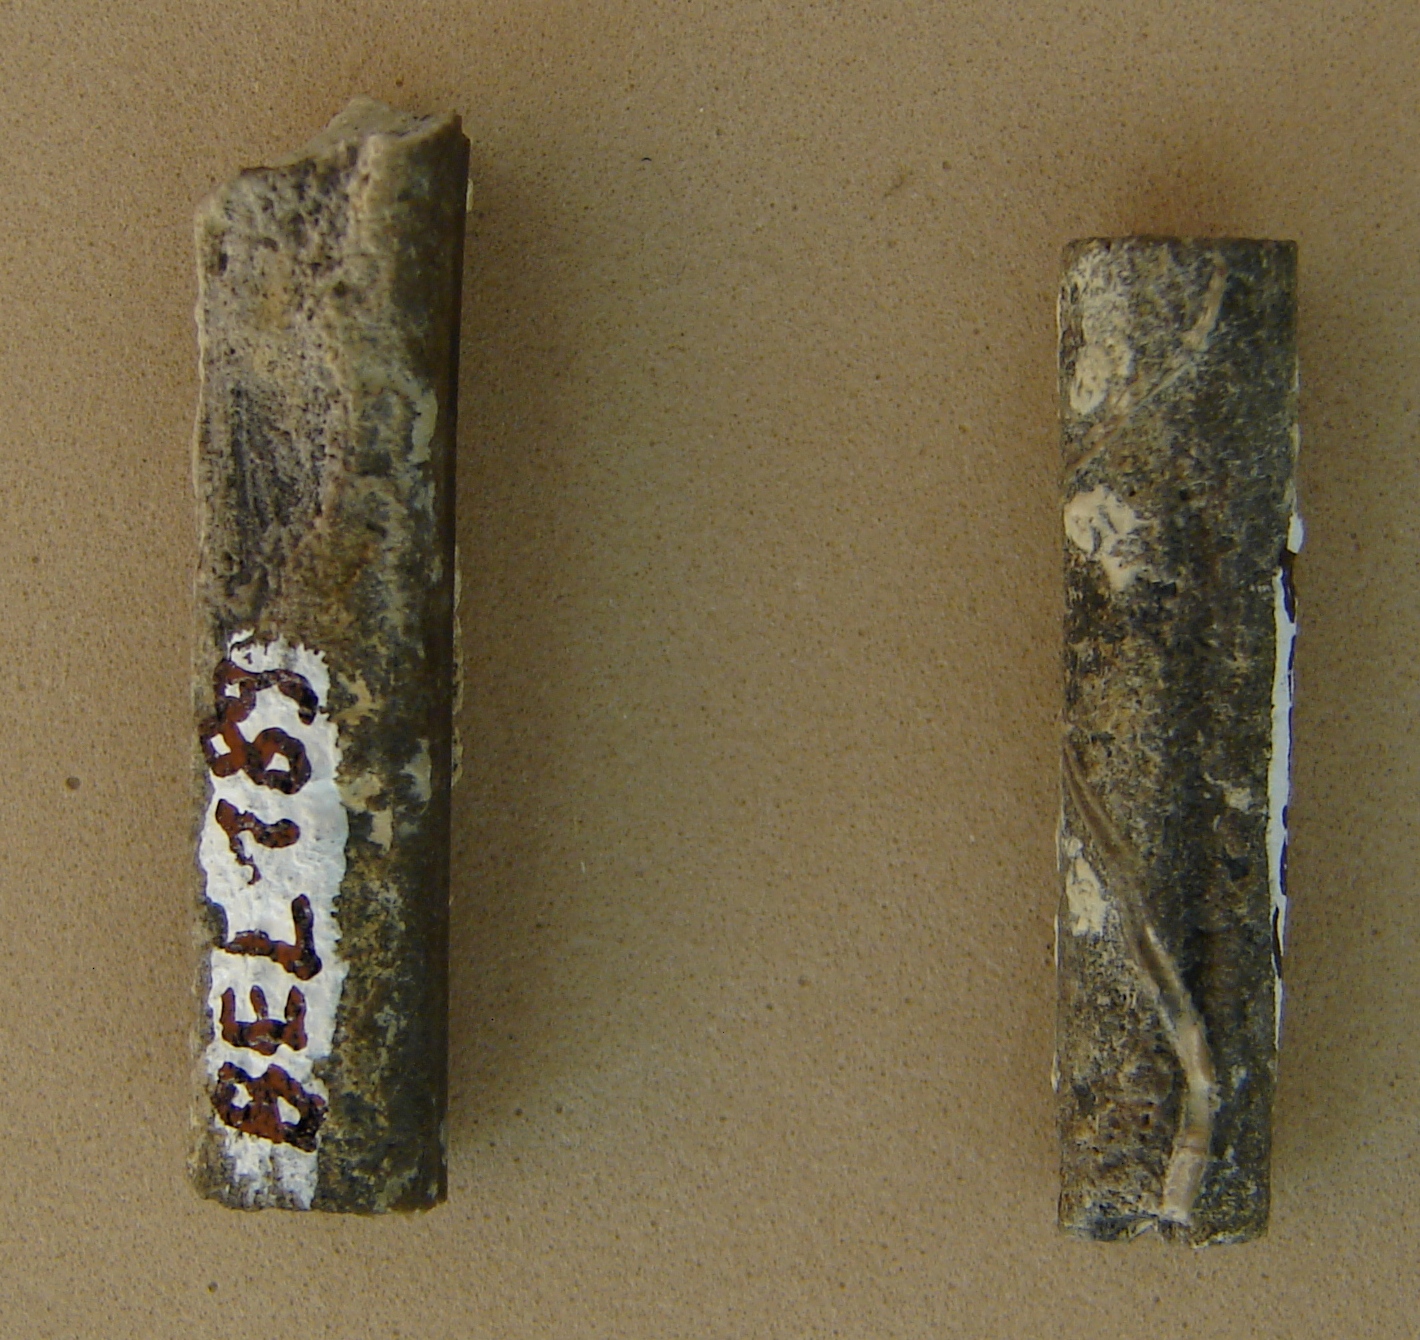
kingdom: Animalia
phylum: Mollusca
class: Cephalopoda
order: Belemnitida
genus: Dicoelites
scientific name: Dicoelites
